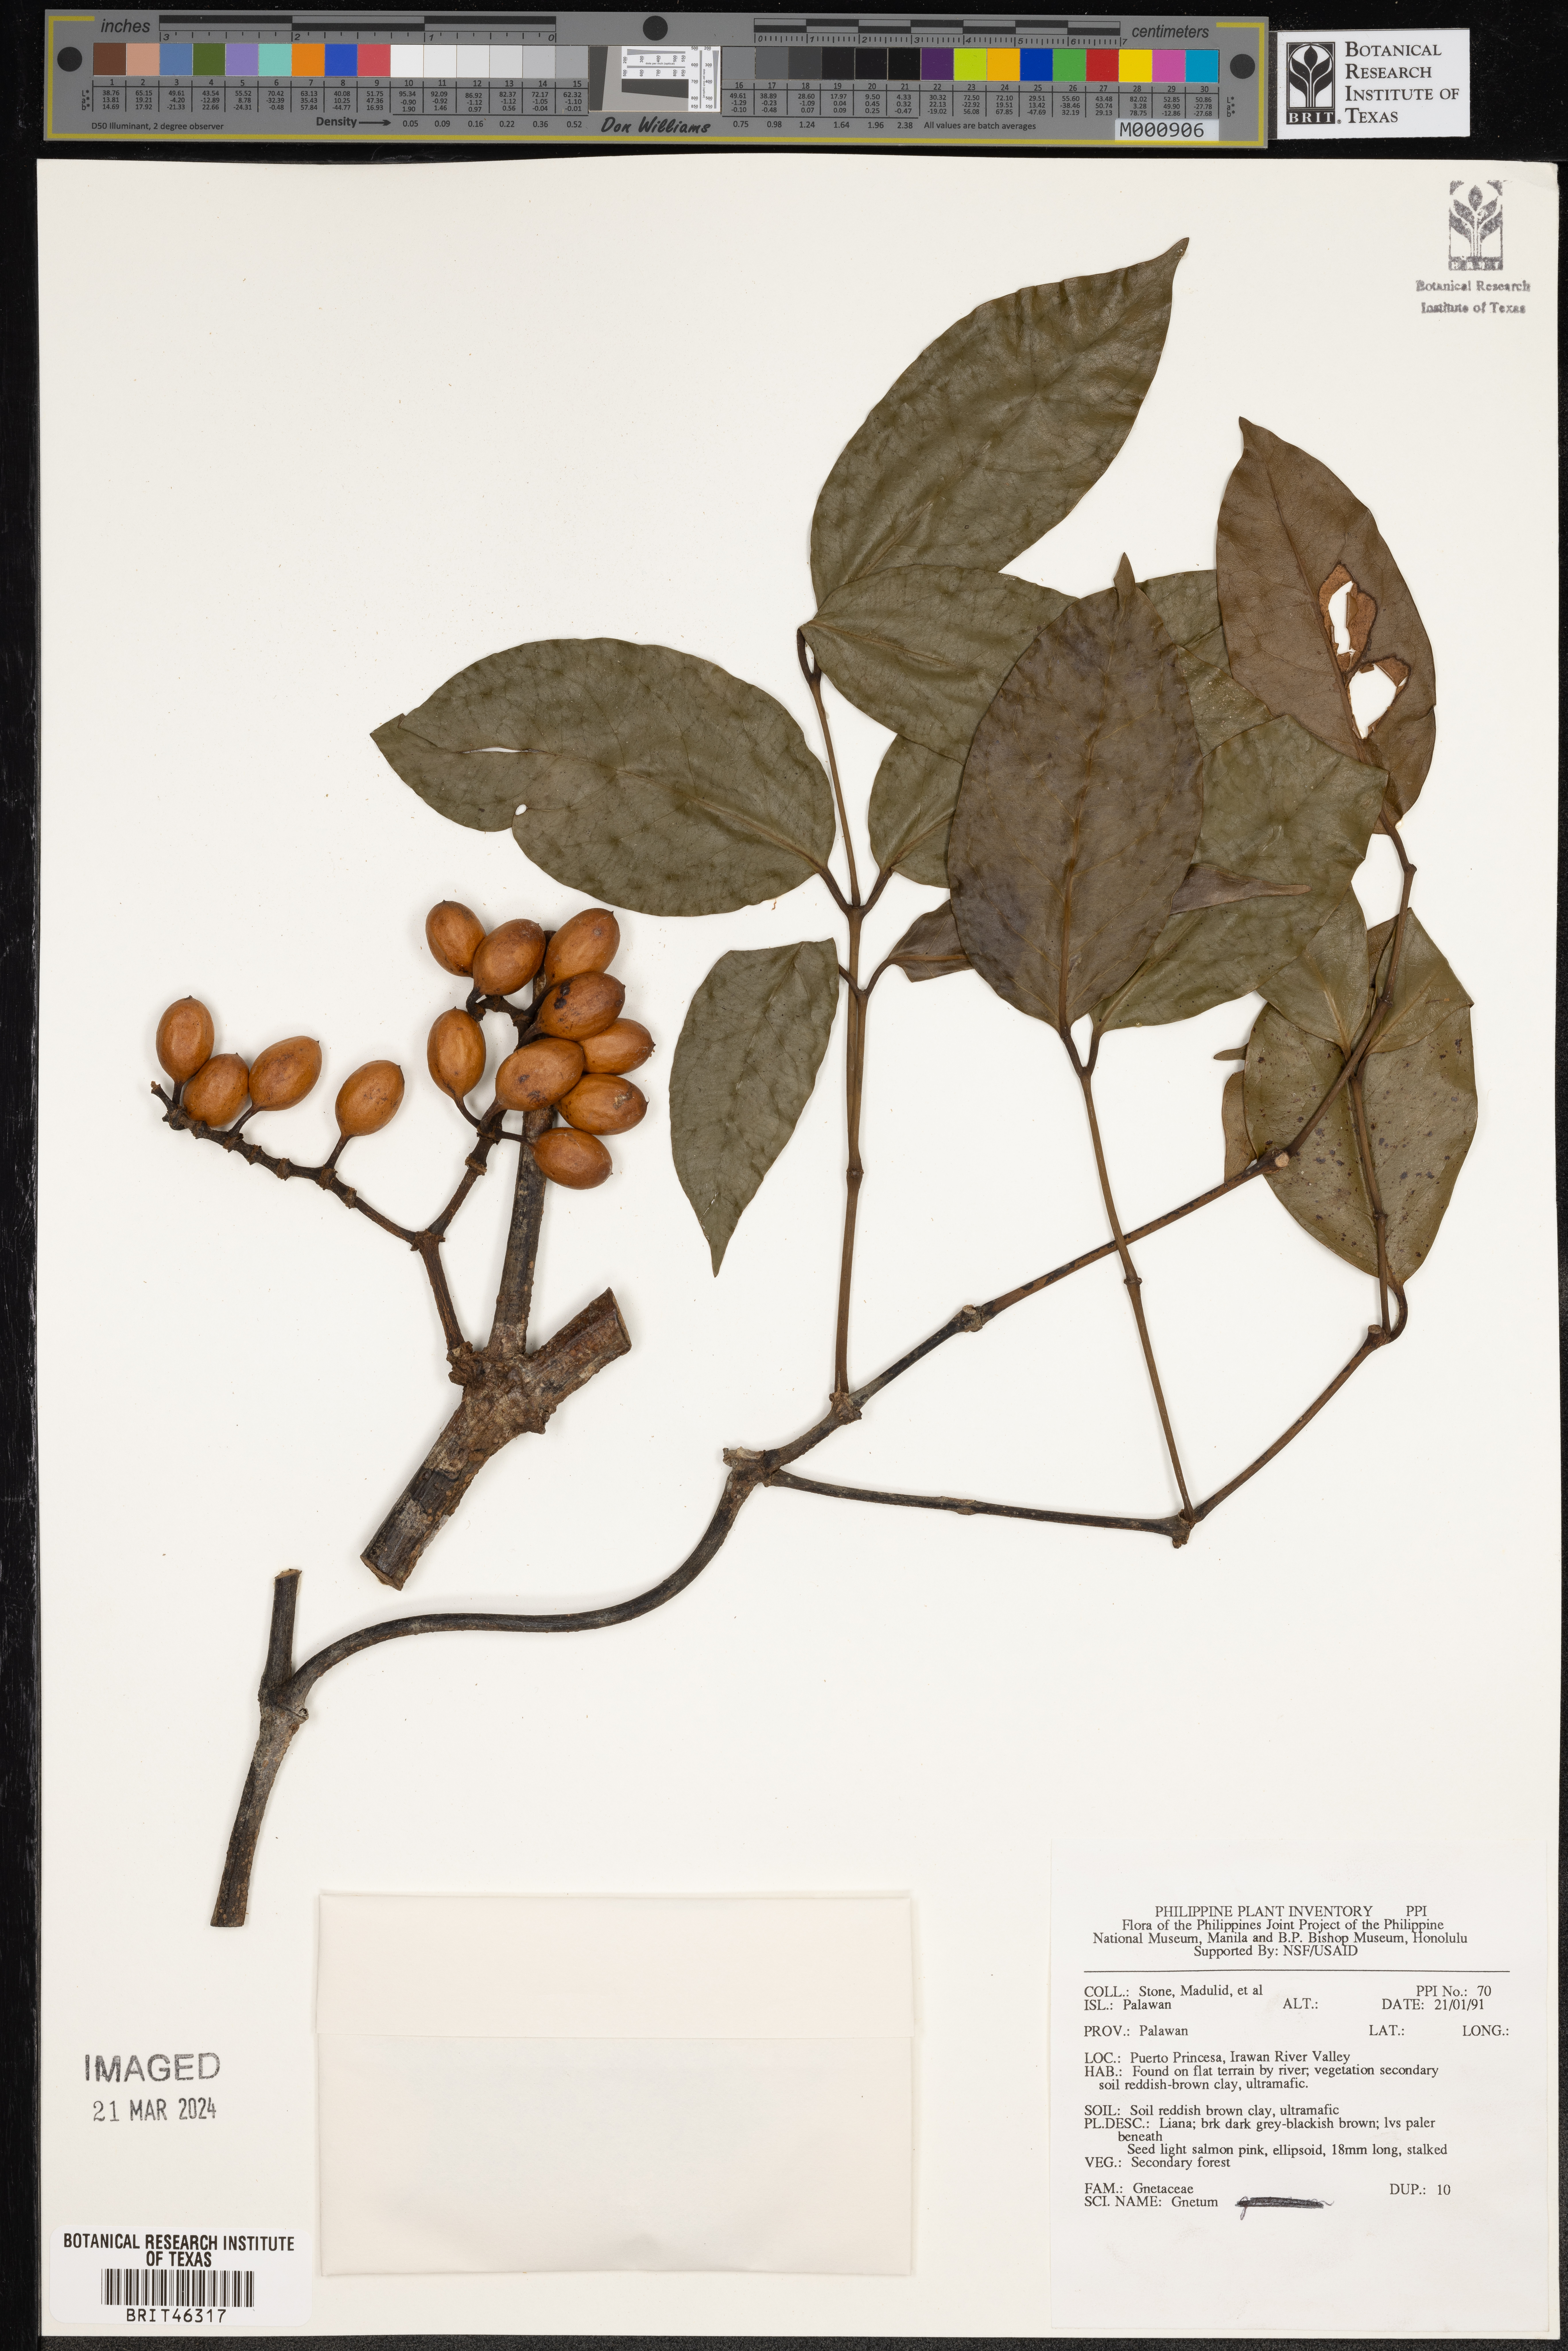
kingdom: Plantae
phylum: Tracheophyta
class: Gnetopsida
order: Gnetales
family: Gnetaceae
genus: Gnetum
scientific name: Gnetum
